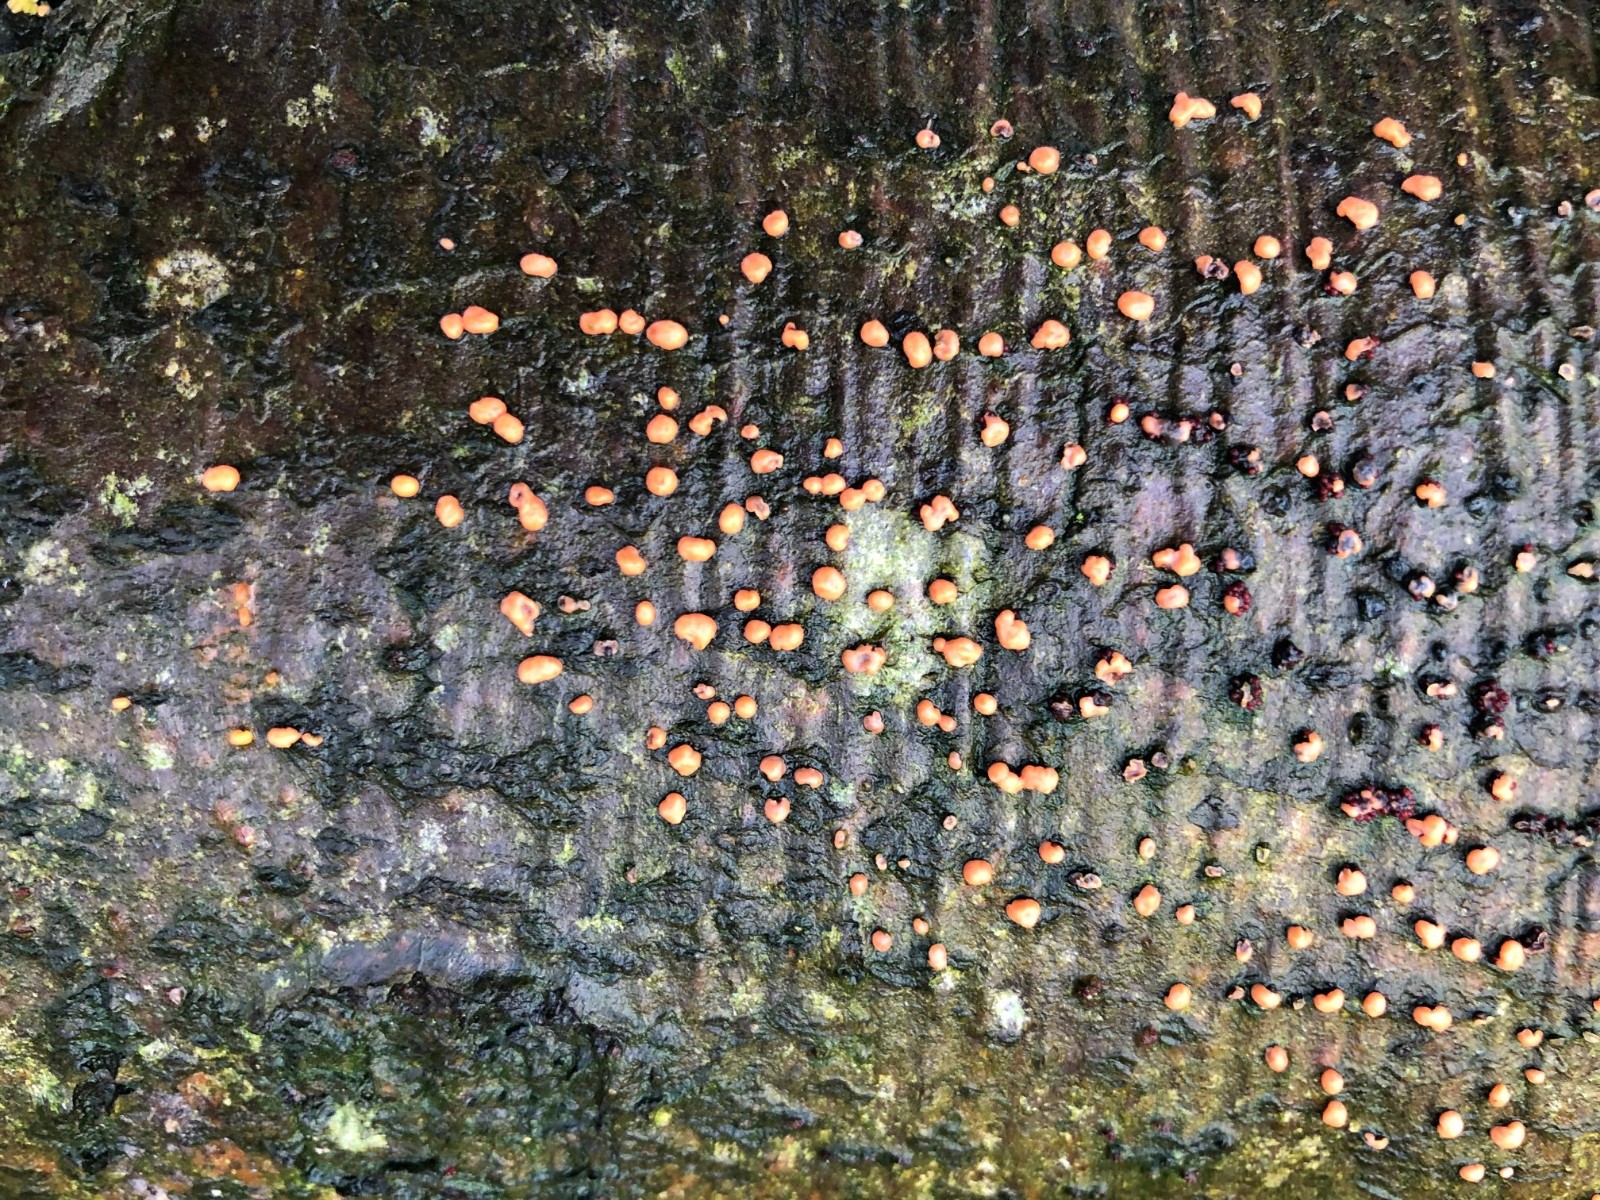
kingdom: Fungi
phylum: Ascomycota
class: Sordariomycetes
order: Hypocreales
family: Nectriaceae
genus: Nectria
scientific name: Nectria cinnabarina
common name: almindelig cinnobersvamp
